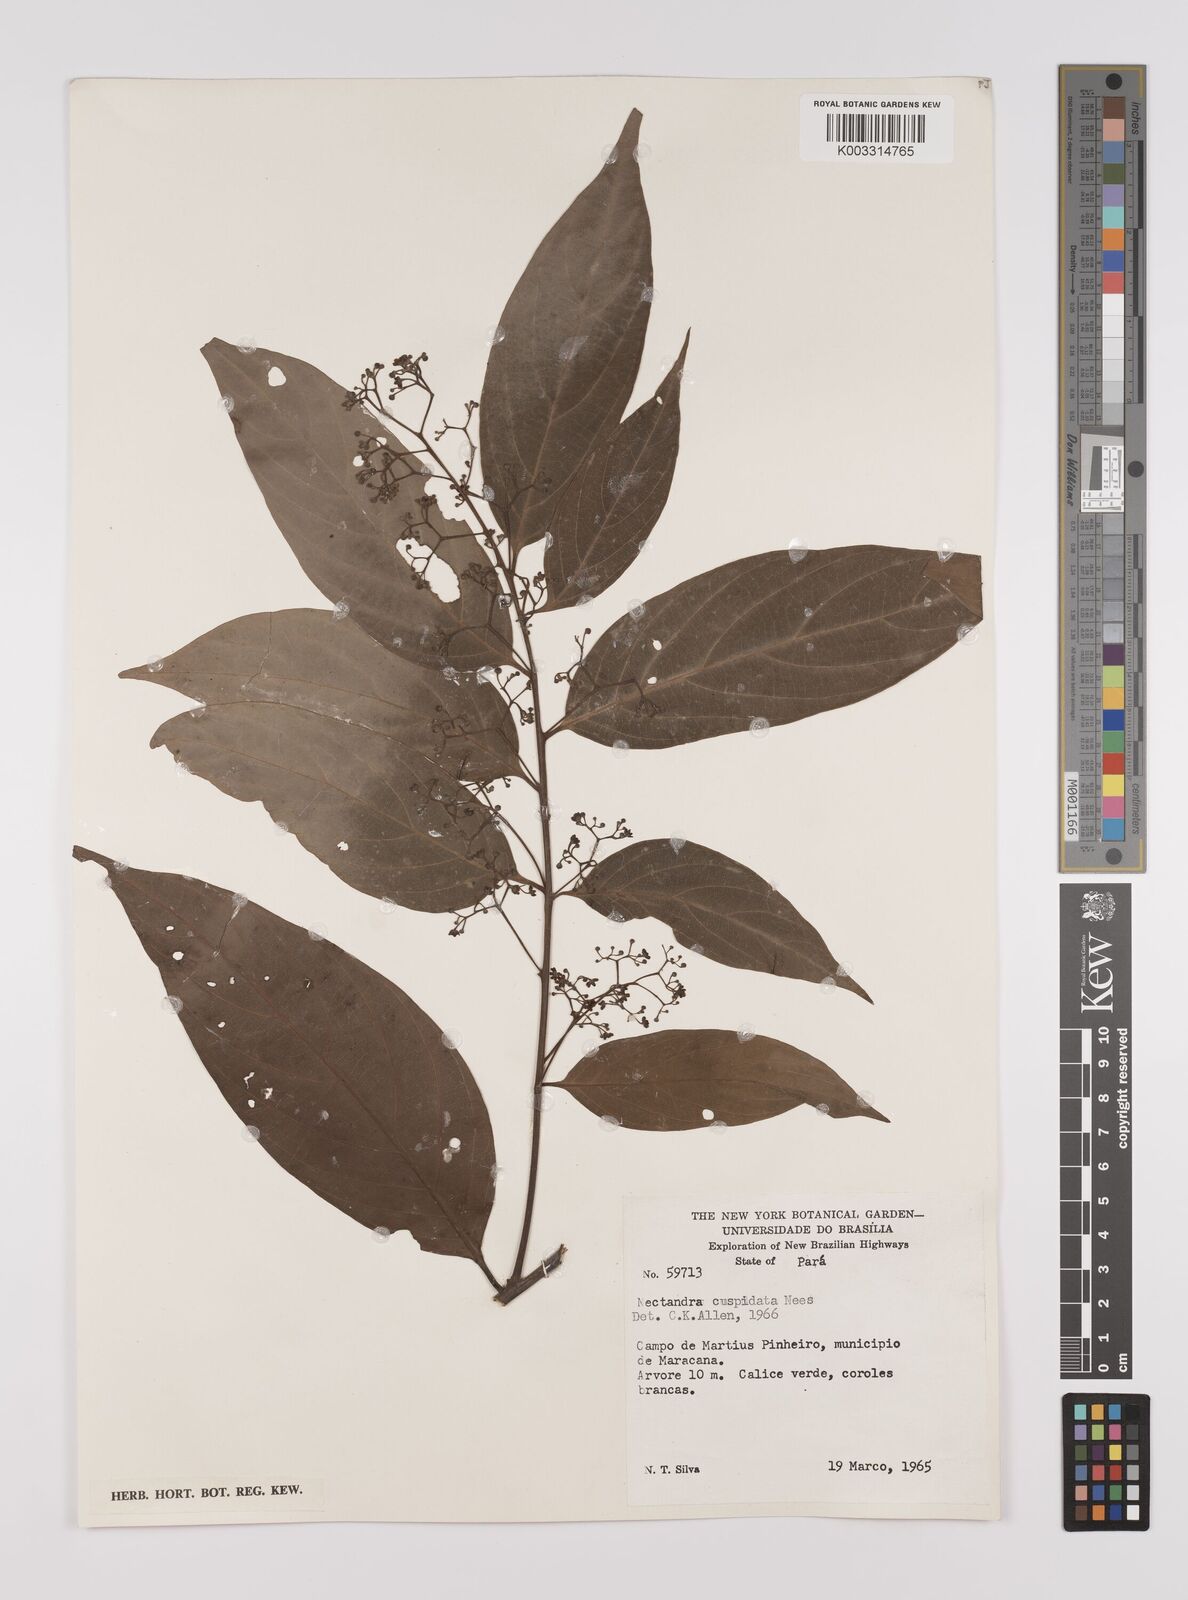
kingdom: Plantae
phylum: Tracheophyta
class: Magnoliopsida
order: Laurales
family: Lauraceae
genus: Nectandra
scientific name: Nectandra cuspidata
